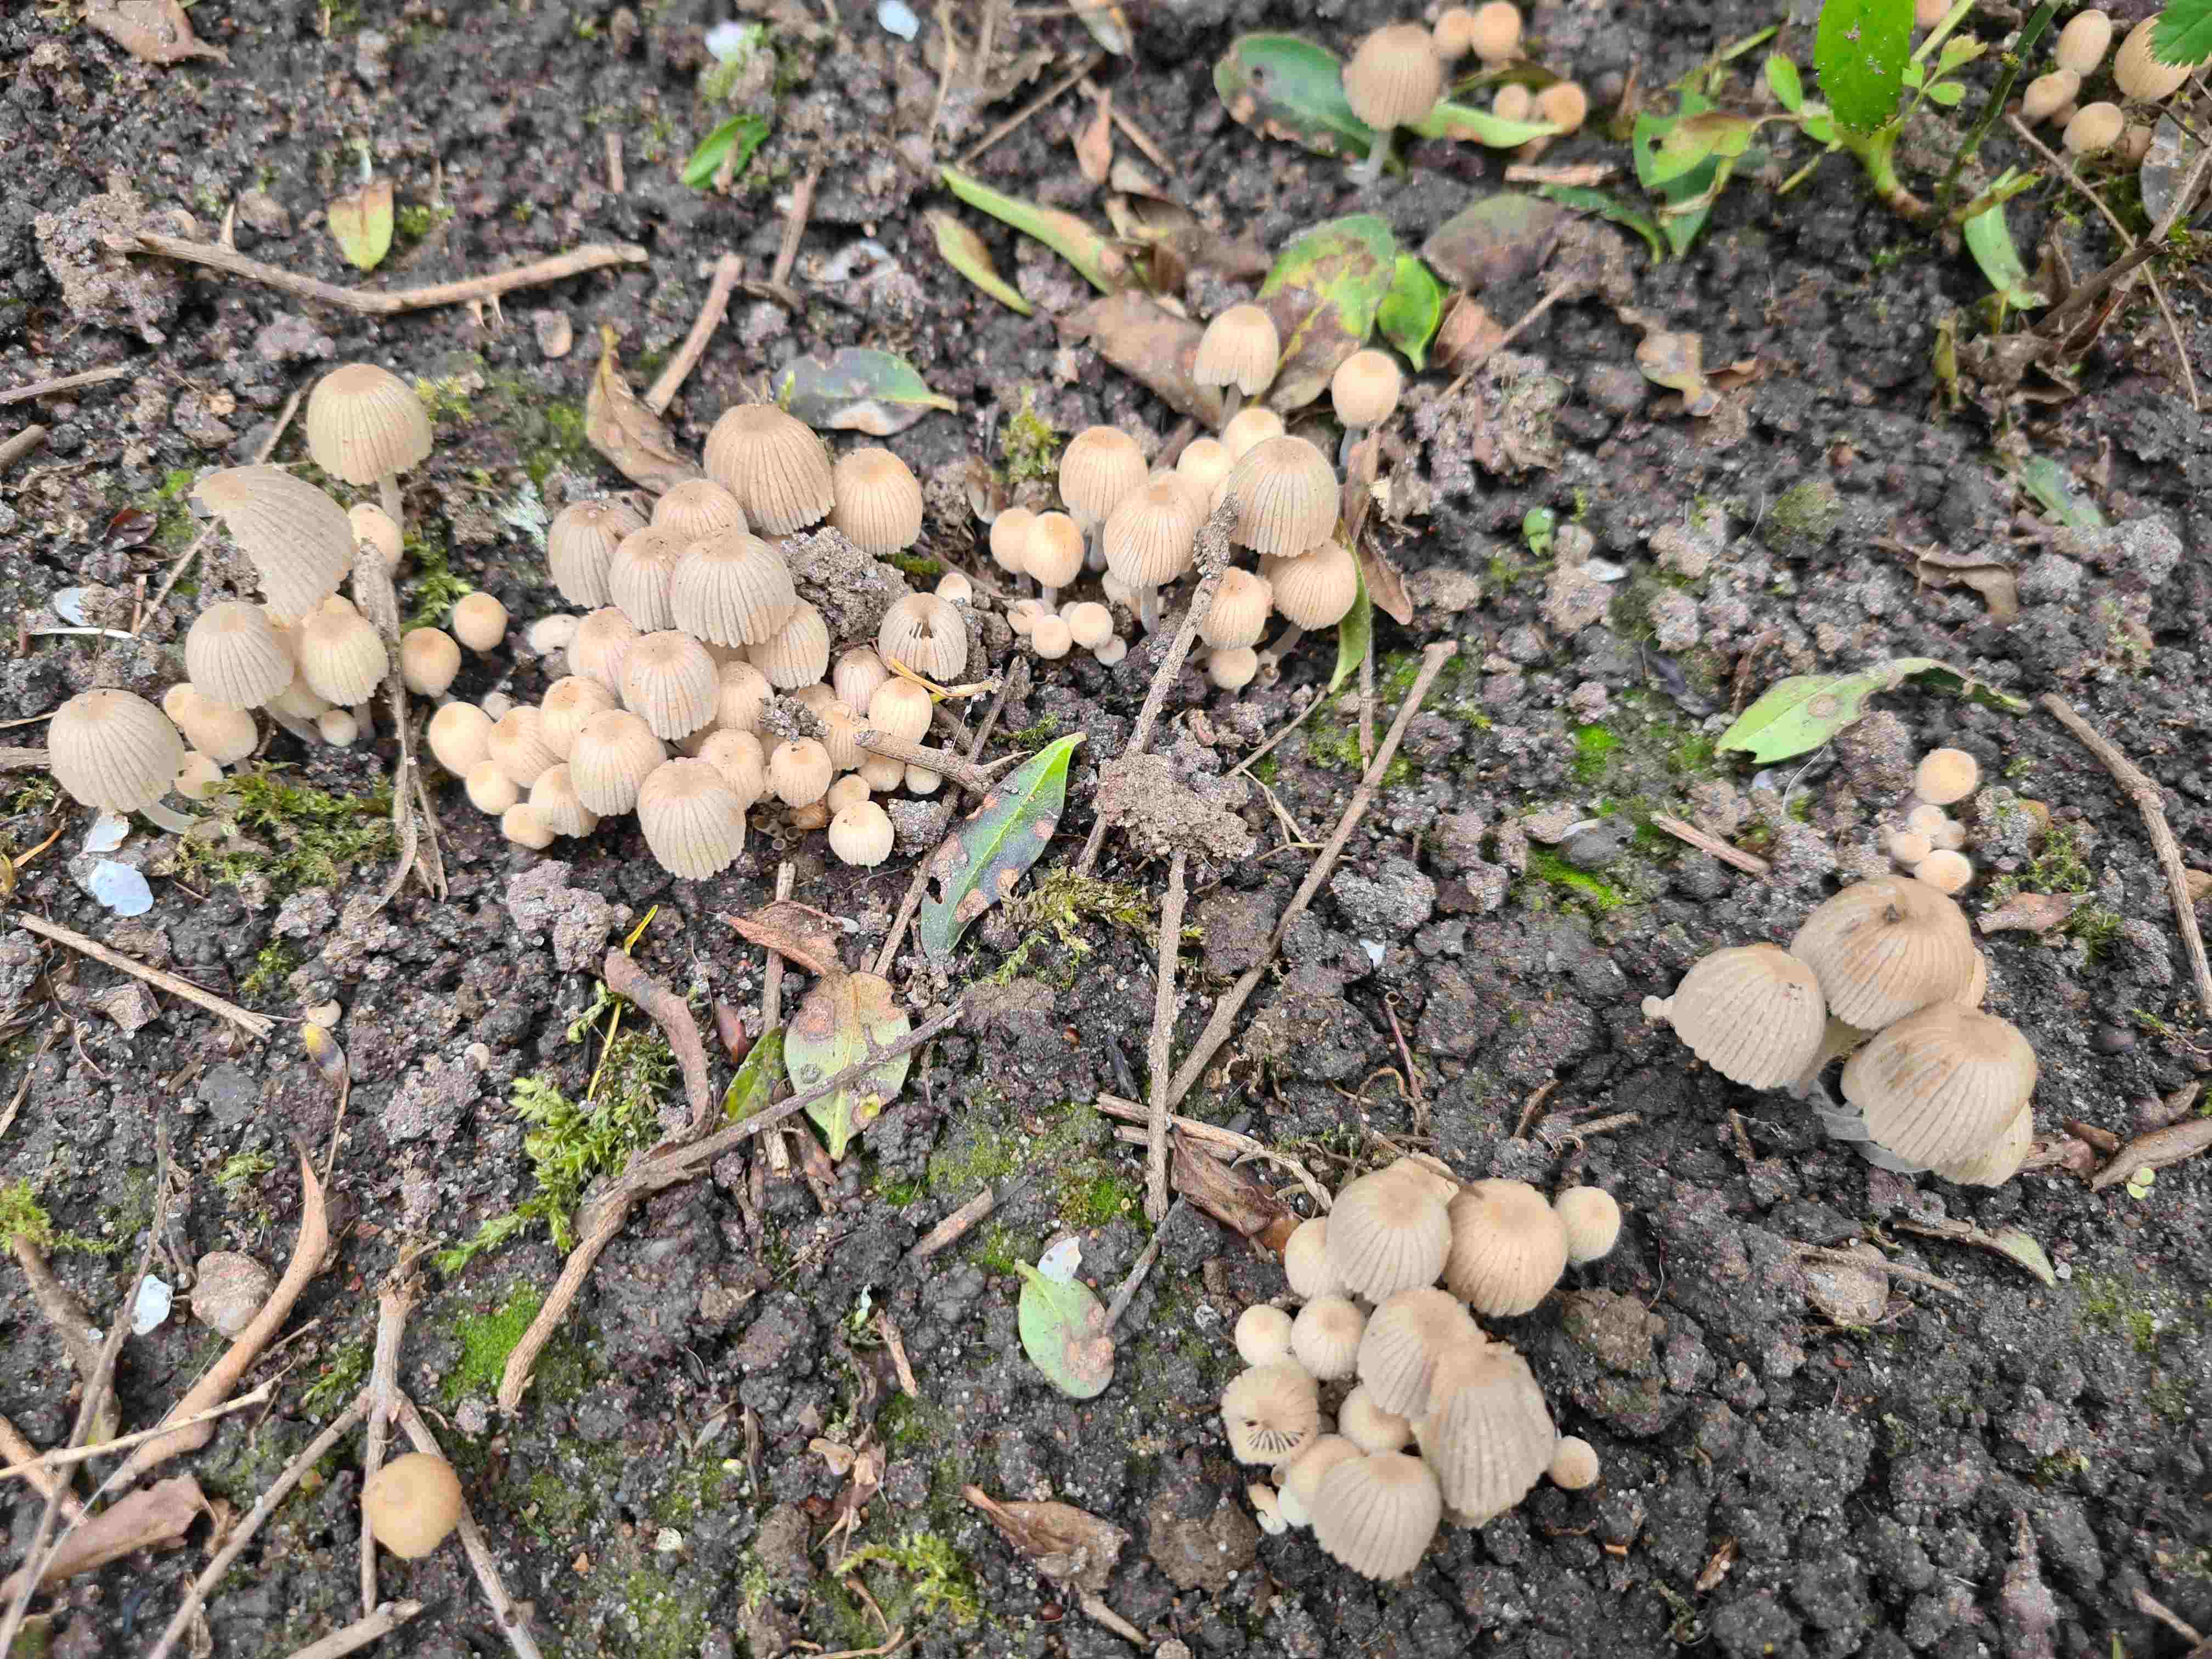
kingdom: Fungi
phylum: Basidiomycota
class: Agaricomycetes
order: Agaricales
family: Psathyrellaceae
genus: Coprinellus
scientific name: Coprinellus disseminatus
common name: bredsået blækhat
